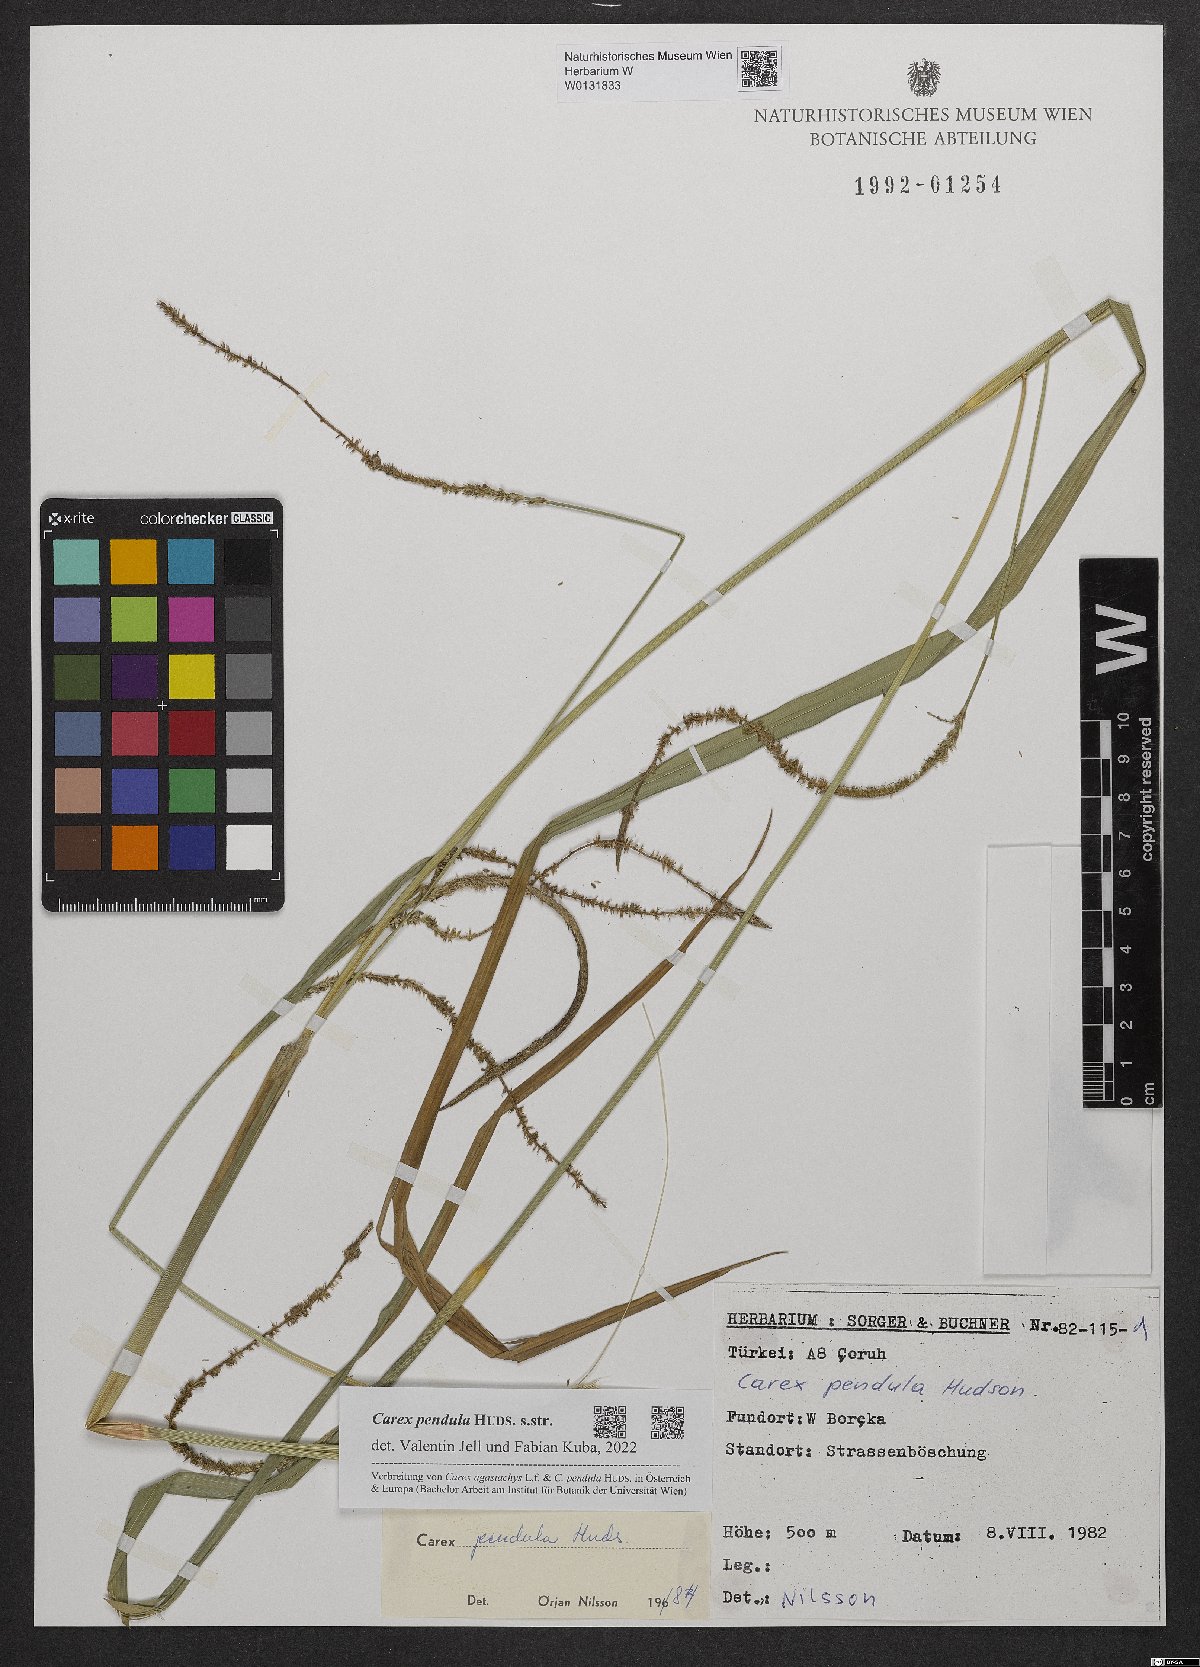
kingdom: Plantae
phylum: Tracheophyta
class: Liliopsida
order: Poales
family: Cyperaceae
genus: Carex
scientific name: Carex pendula
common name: Pendulous sedge
